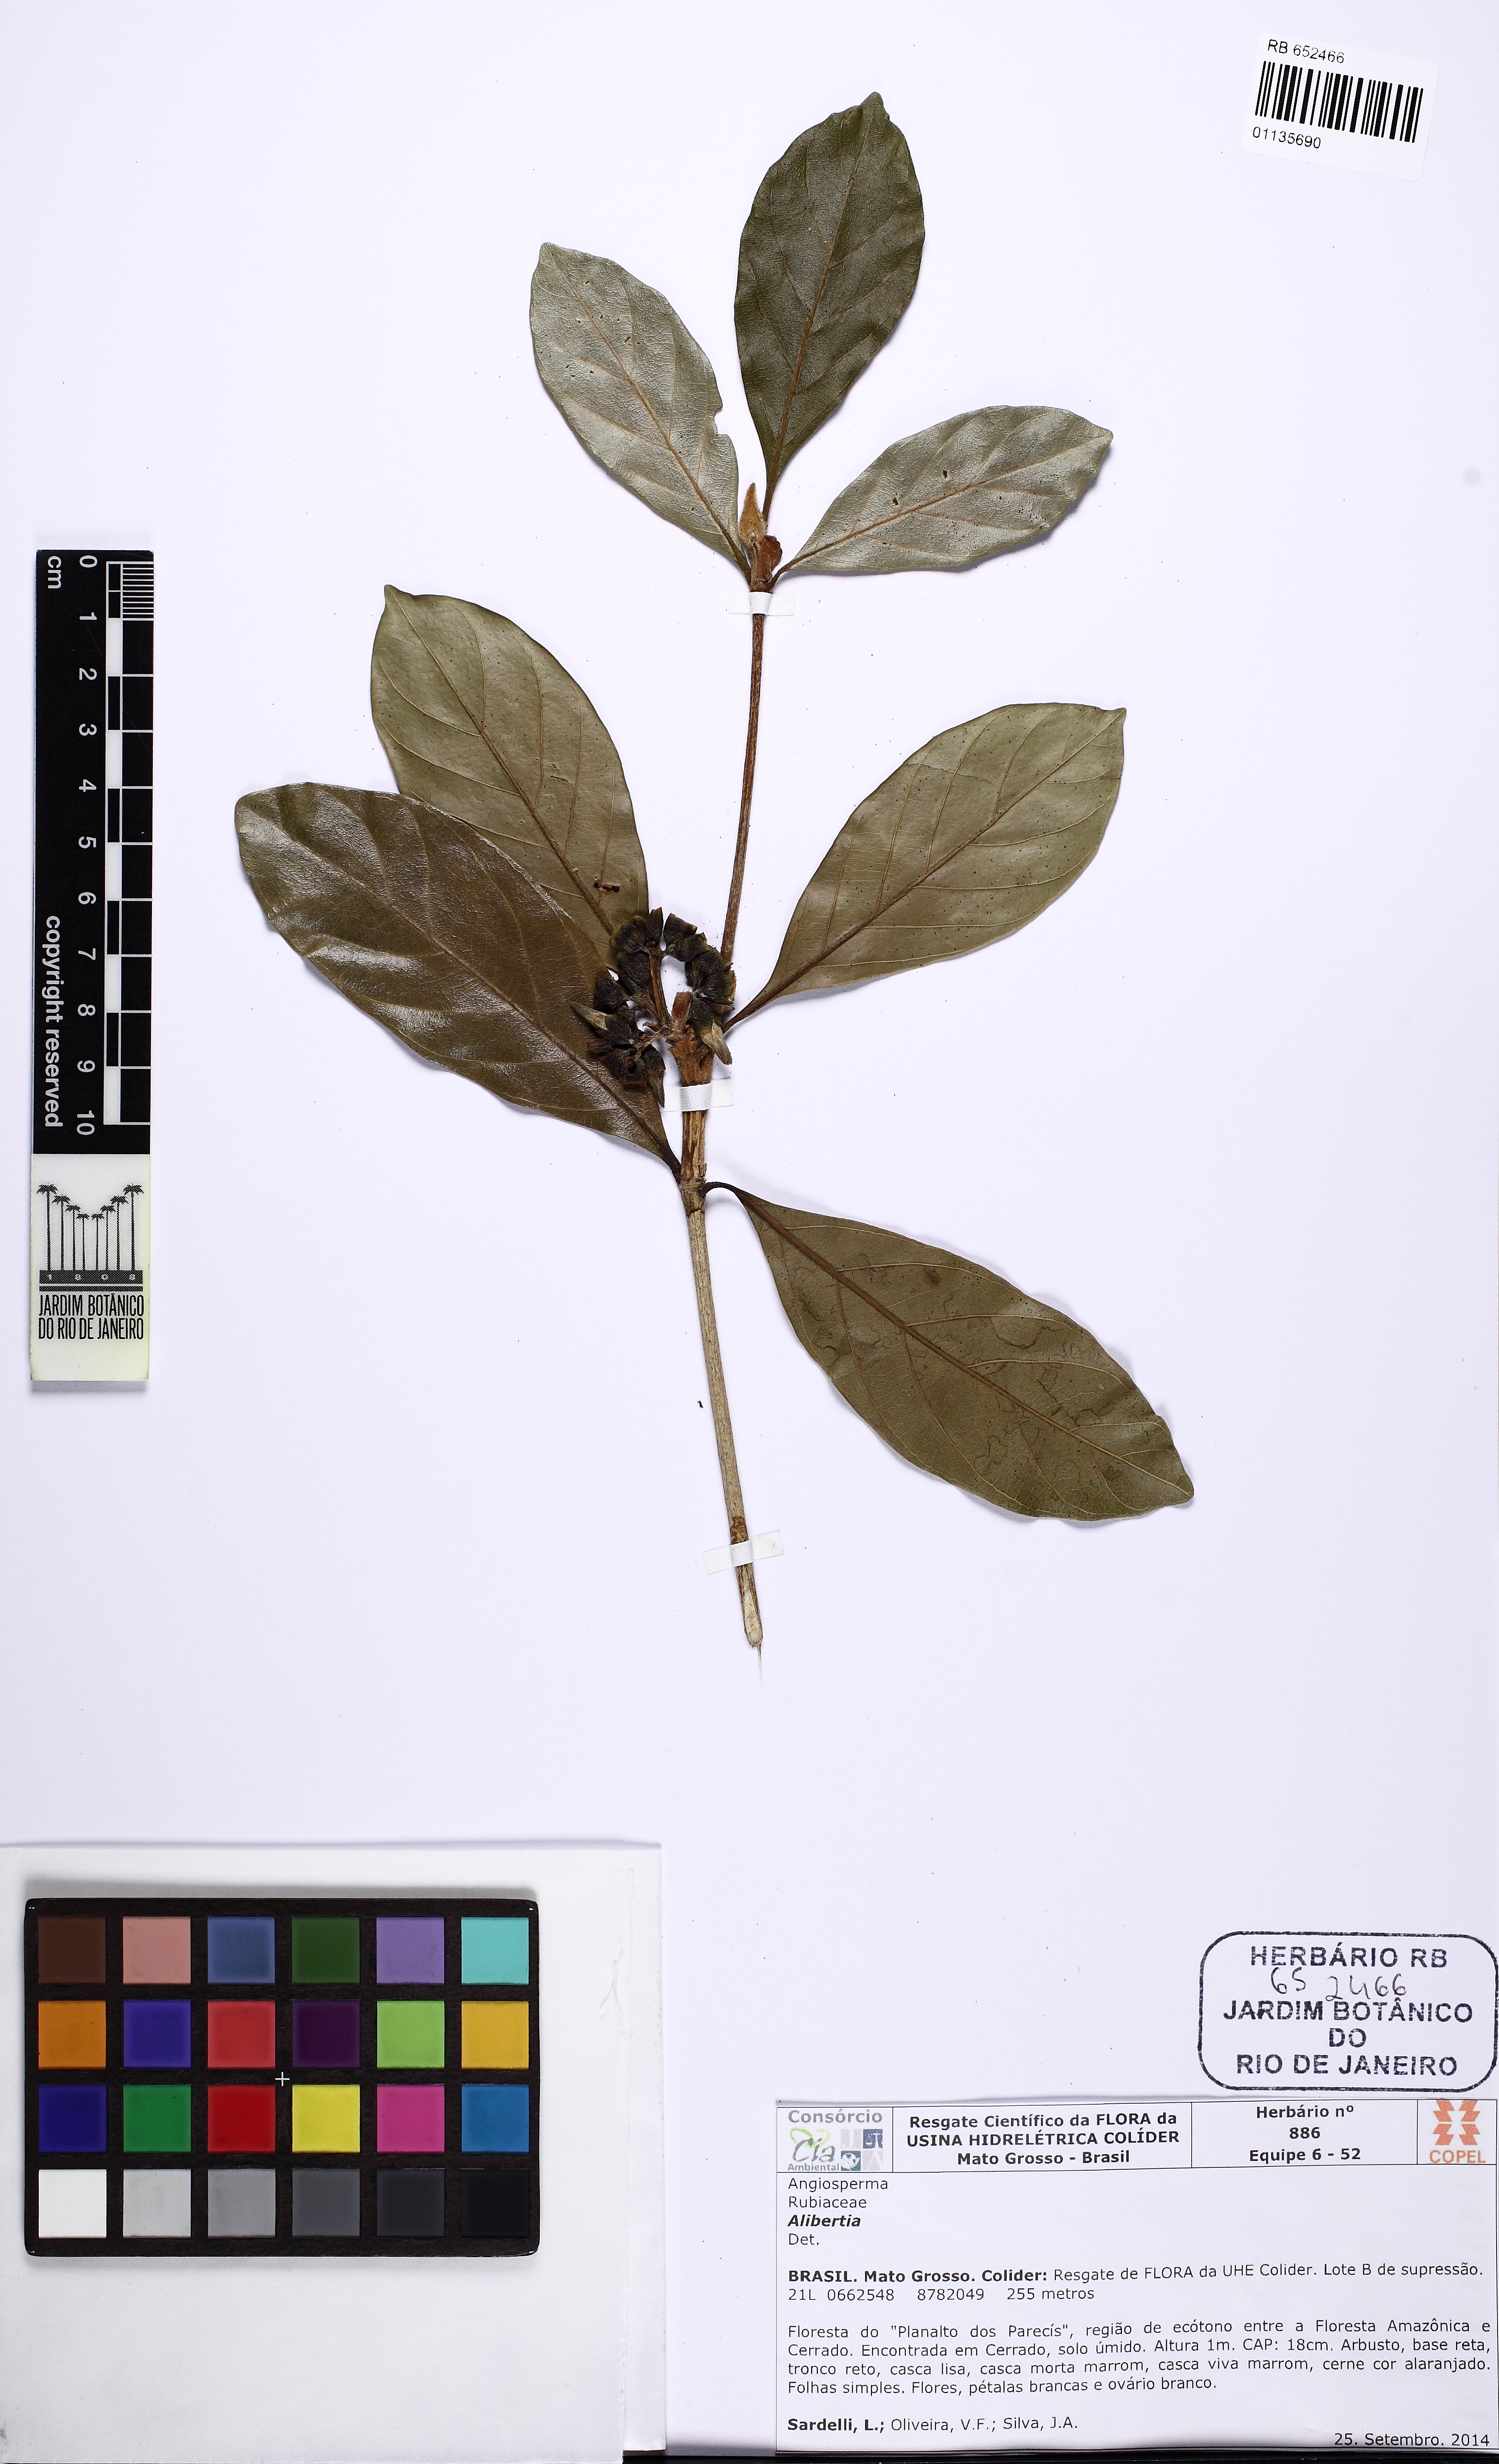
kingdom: Plantae
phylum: Tracheophyta
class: Magnoliopsida
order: Gentianales
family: Rubiaceae
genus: Amaioua
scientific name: Amaioua intermedia
